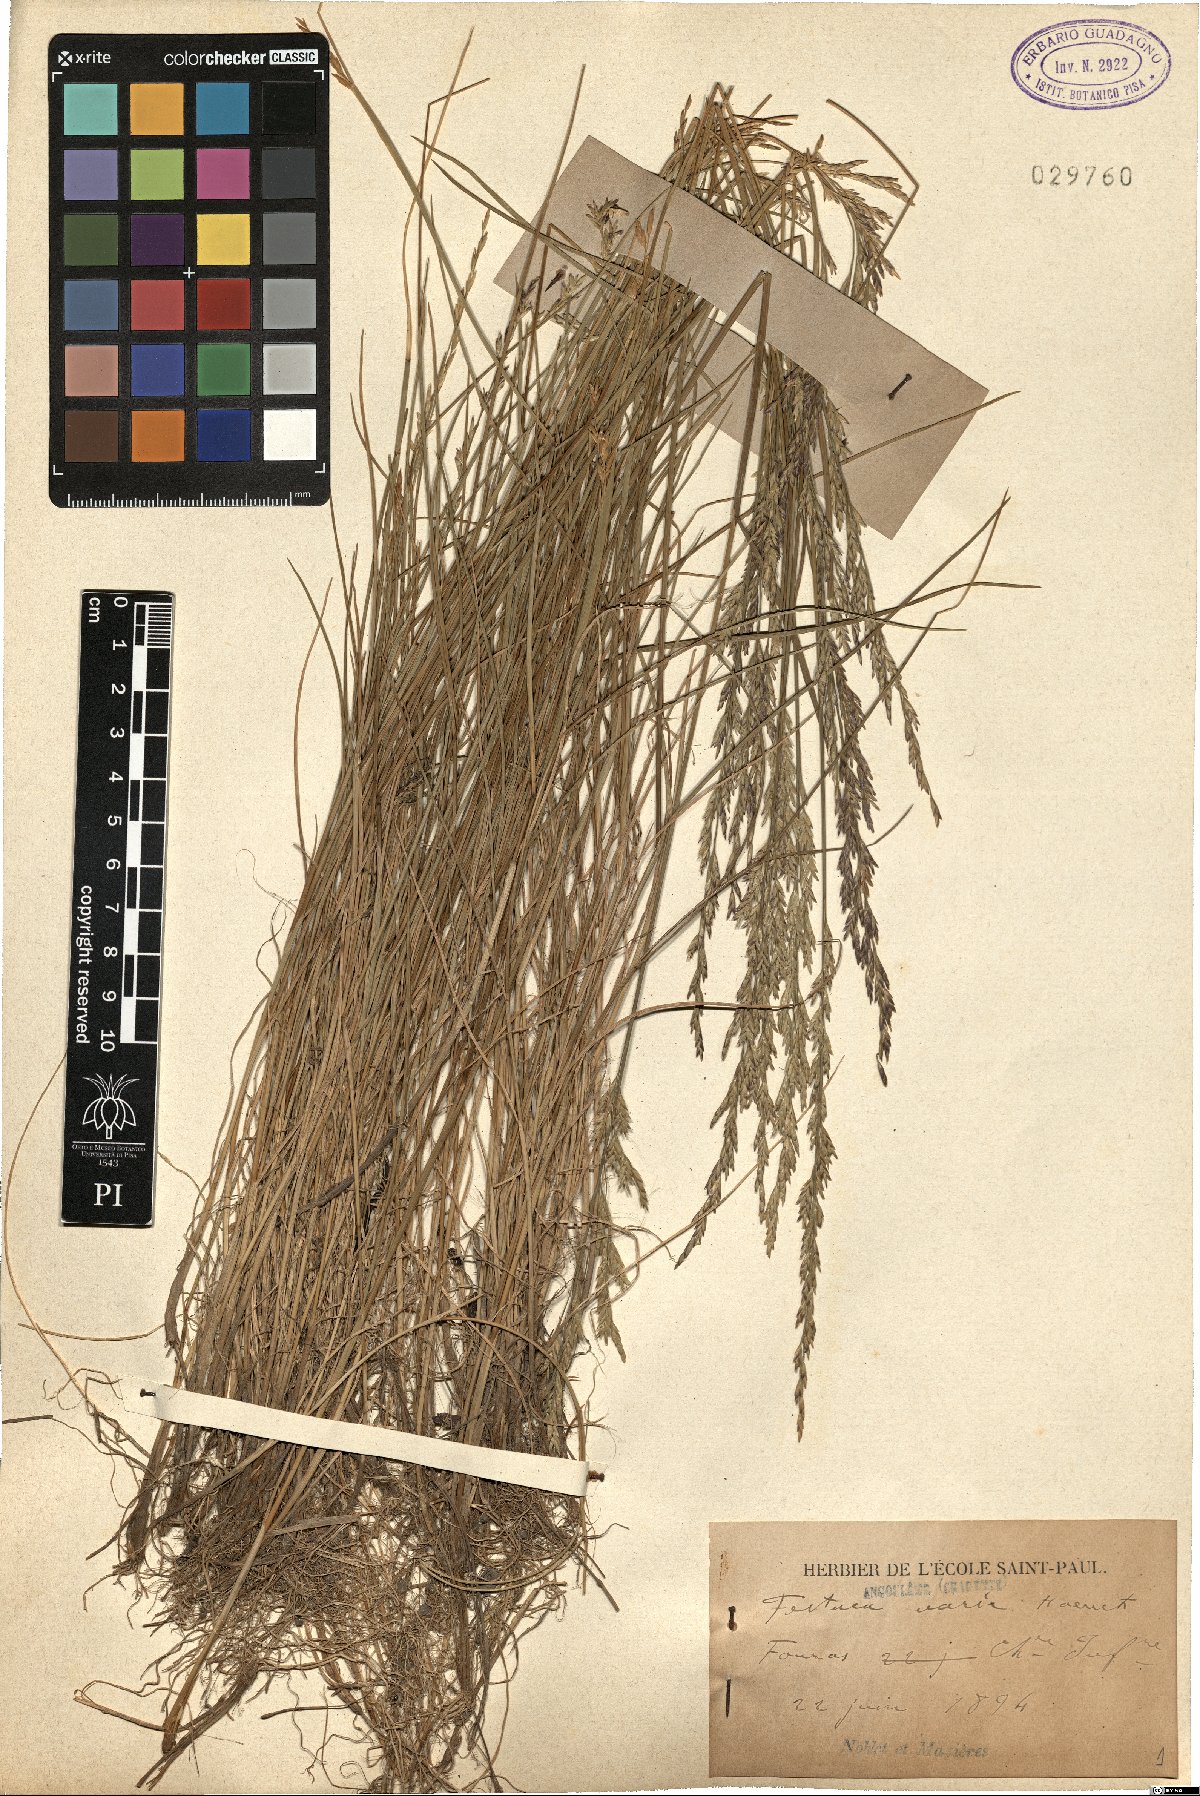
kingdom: Plantae
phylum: Tracheophyta
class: Liliopsida
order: Poales
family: Poaceae
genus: Festuca
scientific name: Festuca varia
